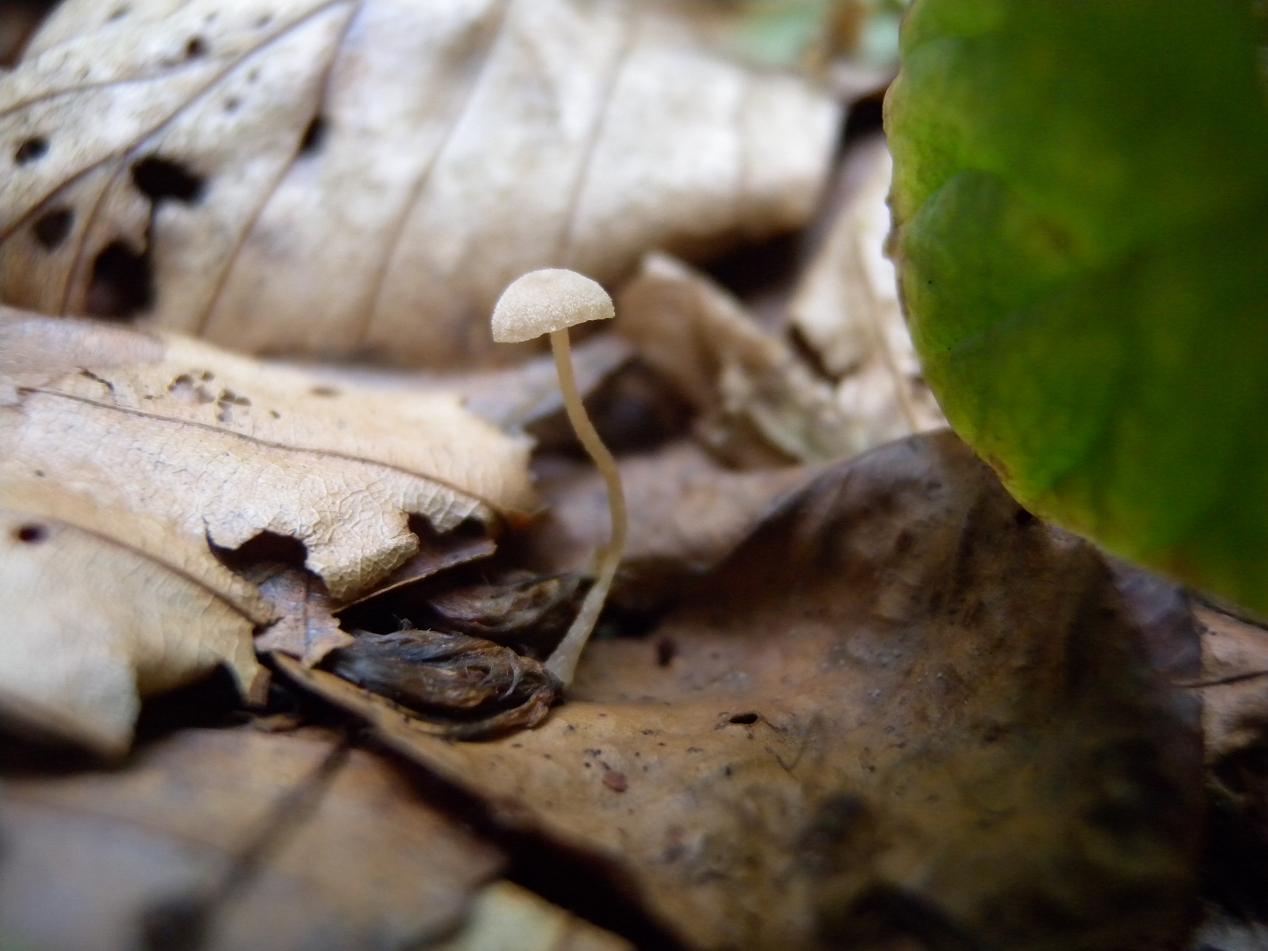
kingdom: Fungi
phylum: Basidiomycota
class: Agaricomycetes
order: Agaricales
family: Tubariaceae
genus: Flammulaster
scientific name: Flammulaster carpophilus
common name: blegrosa grynskælhat
